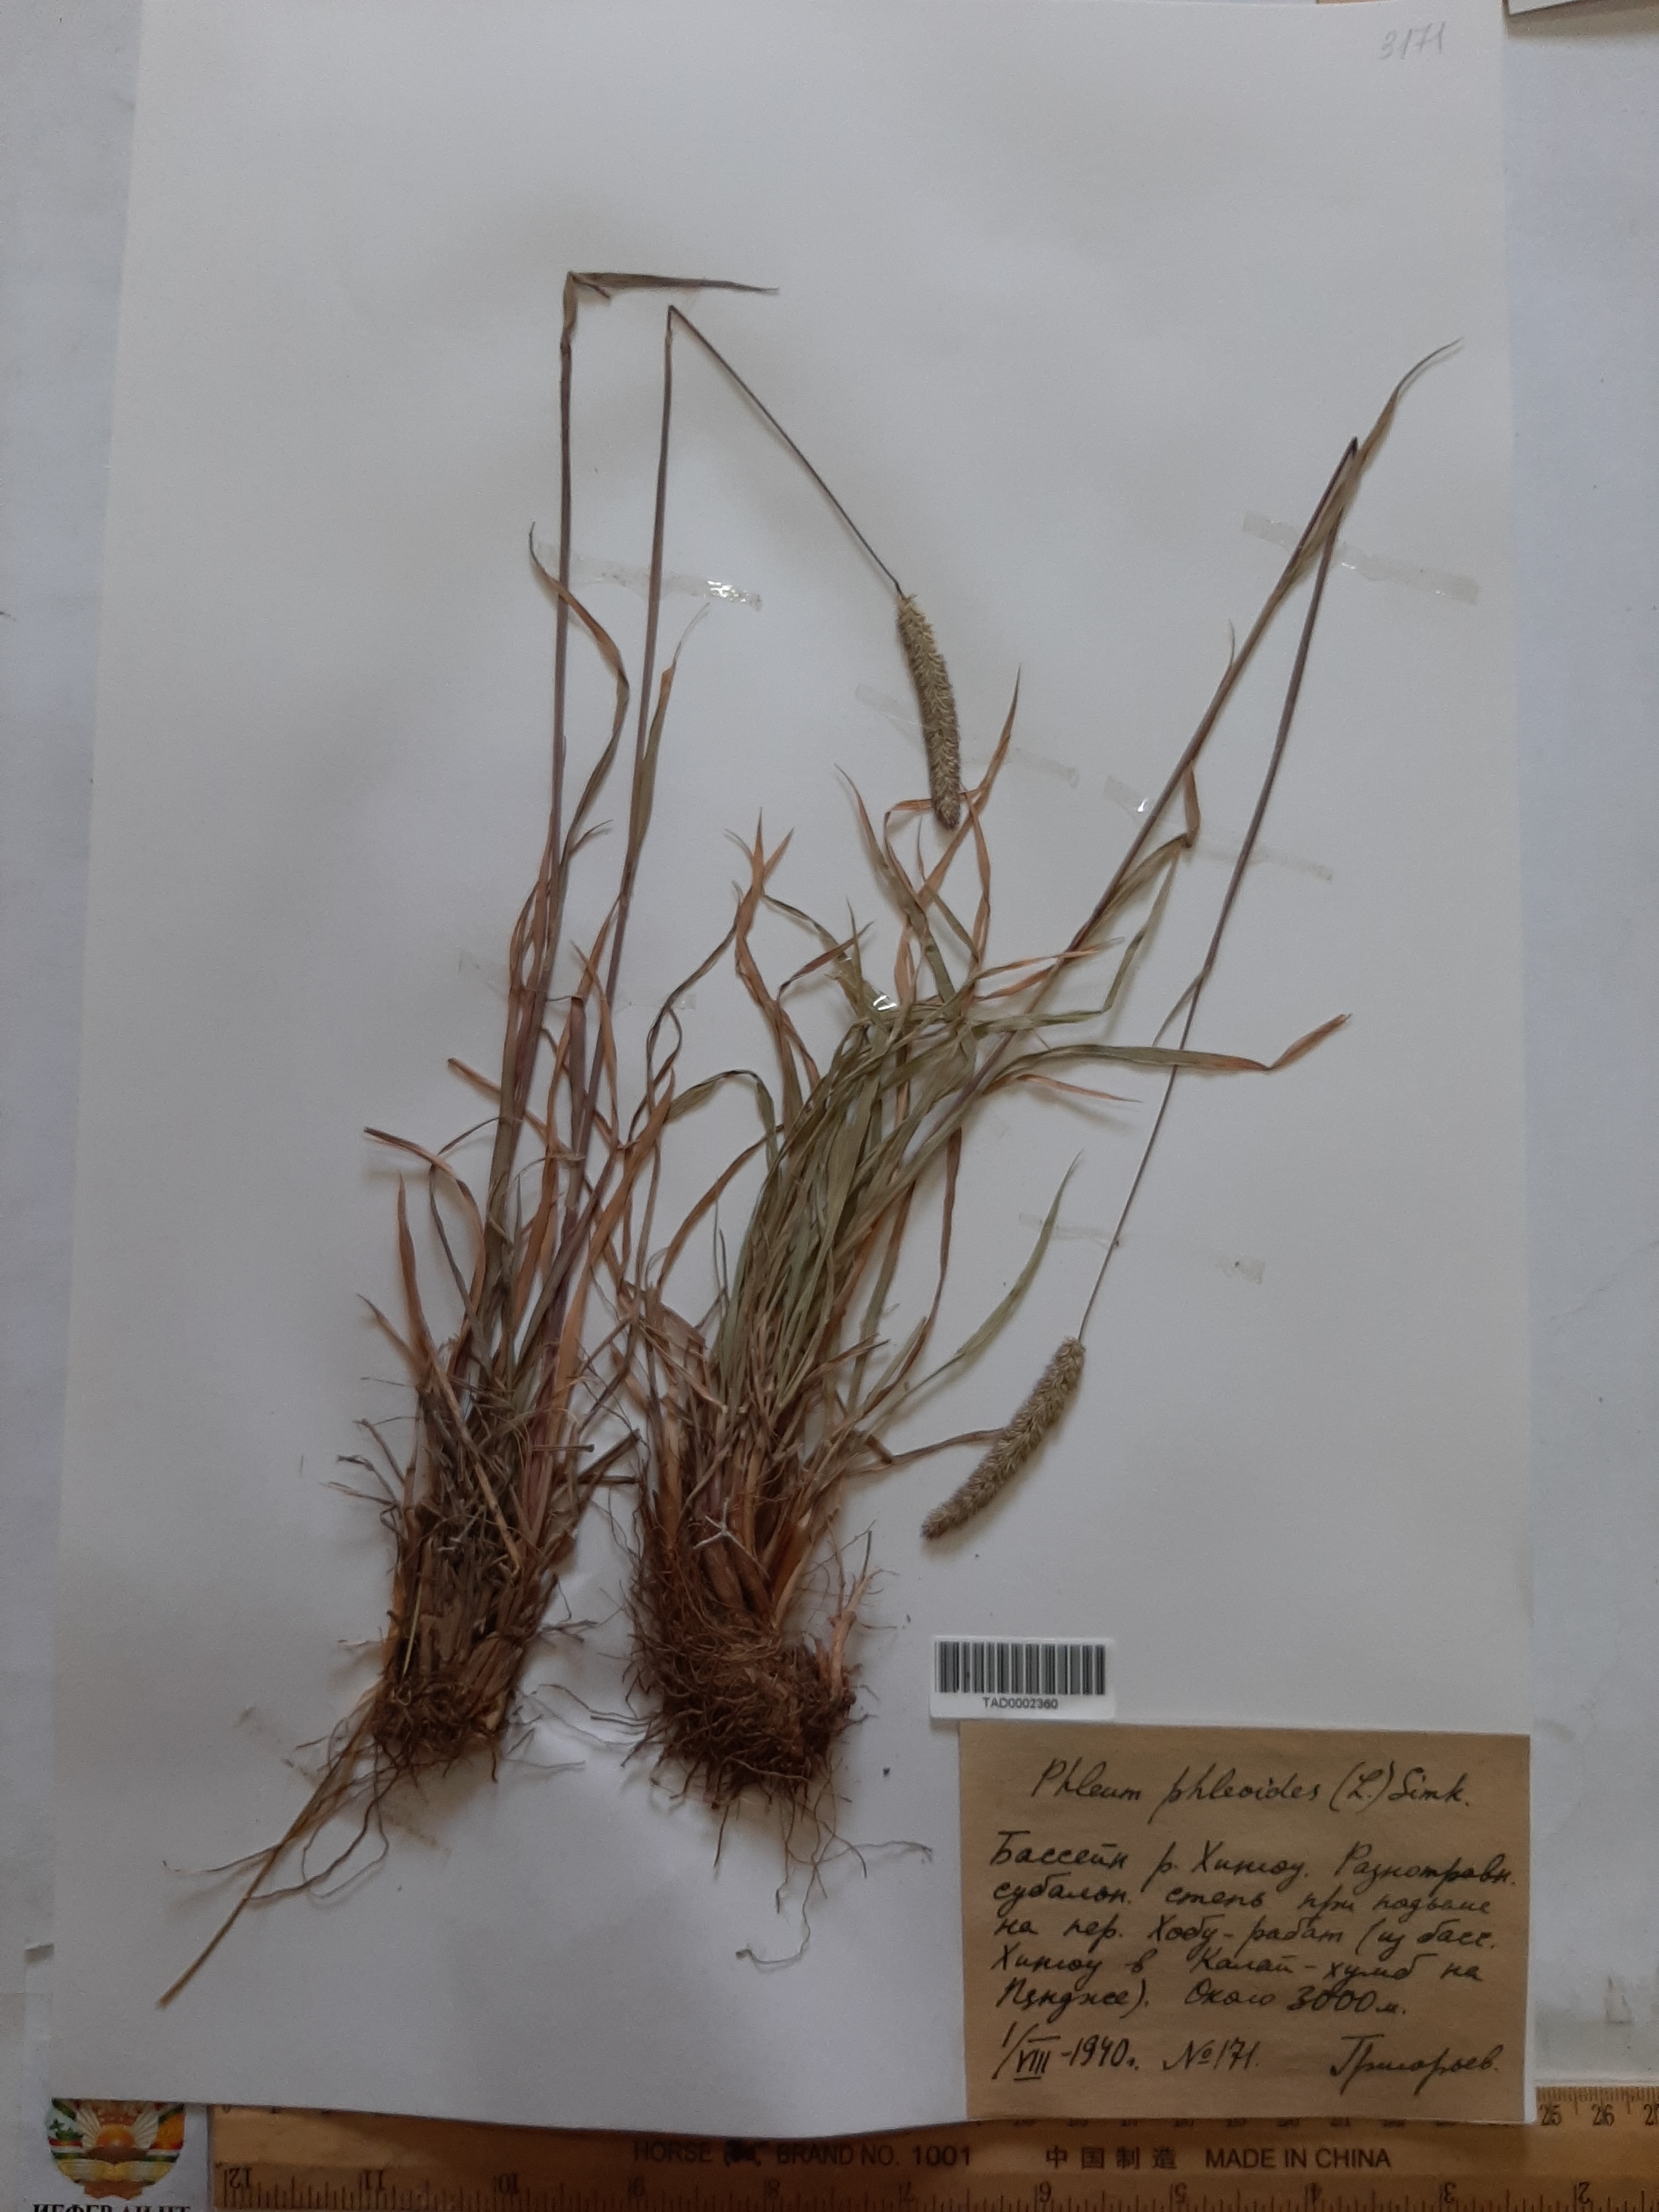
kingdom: Plantae
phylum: Tracheophyta
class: Liliopsida
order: Poales
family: Poaceae
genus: Phleum
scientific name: Phleum phleoides
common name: Purple-stem cat's-tail
